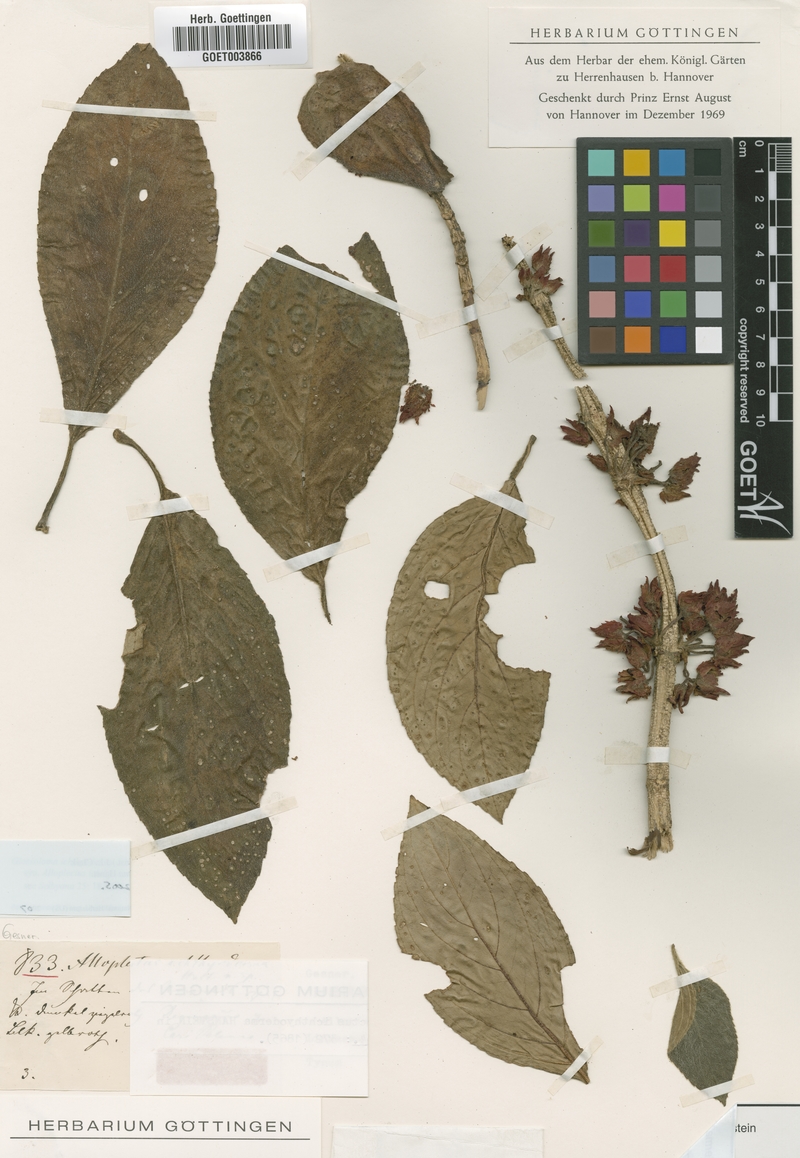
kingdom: Plantae
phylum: Tracheophyta
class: Magnoliopsida
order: Lamiales
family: Gesneriaceae
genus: Glossoloma
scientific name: Glossoloma ichthyoderma
